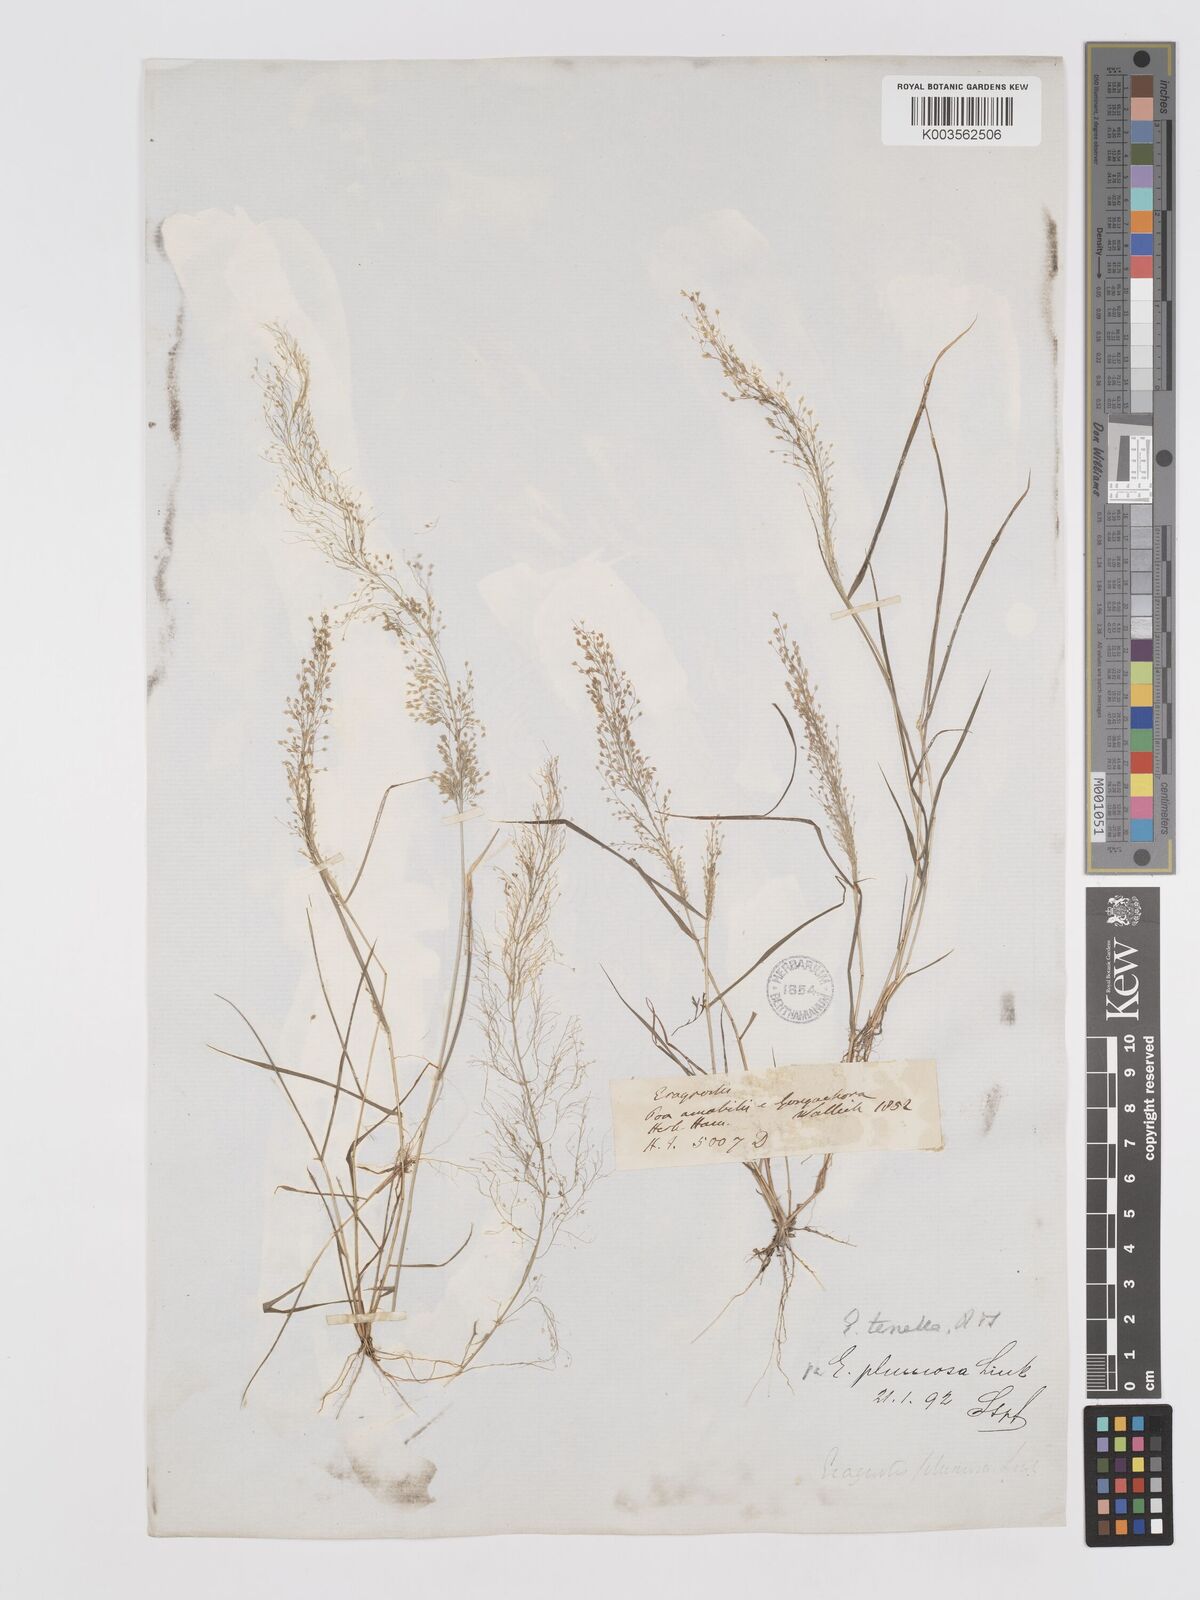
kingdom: Plantae
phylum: Tracheophyta
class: Liliopsida
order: Poales
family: Poaceae
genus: Eragrostis
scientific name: Eragrostis tenella
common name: Japanese lovegrass
